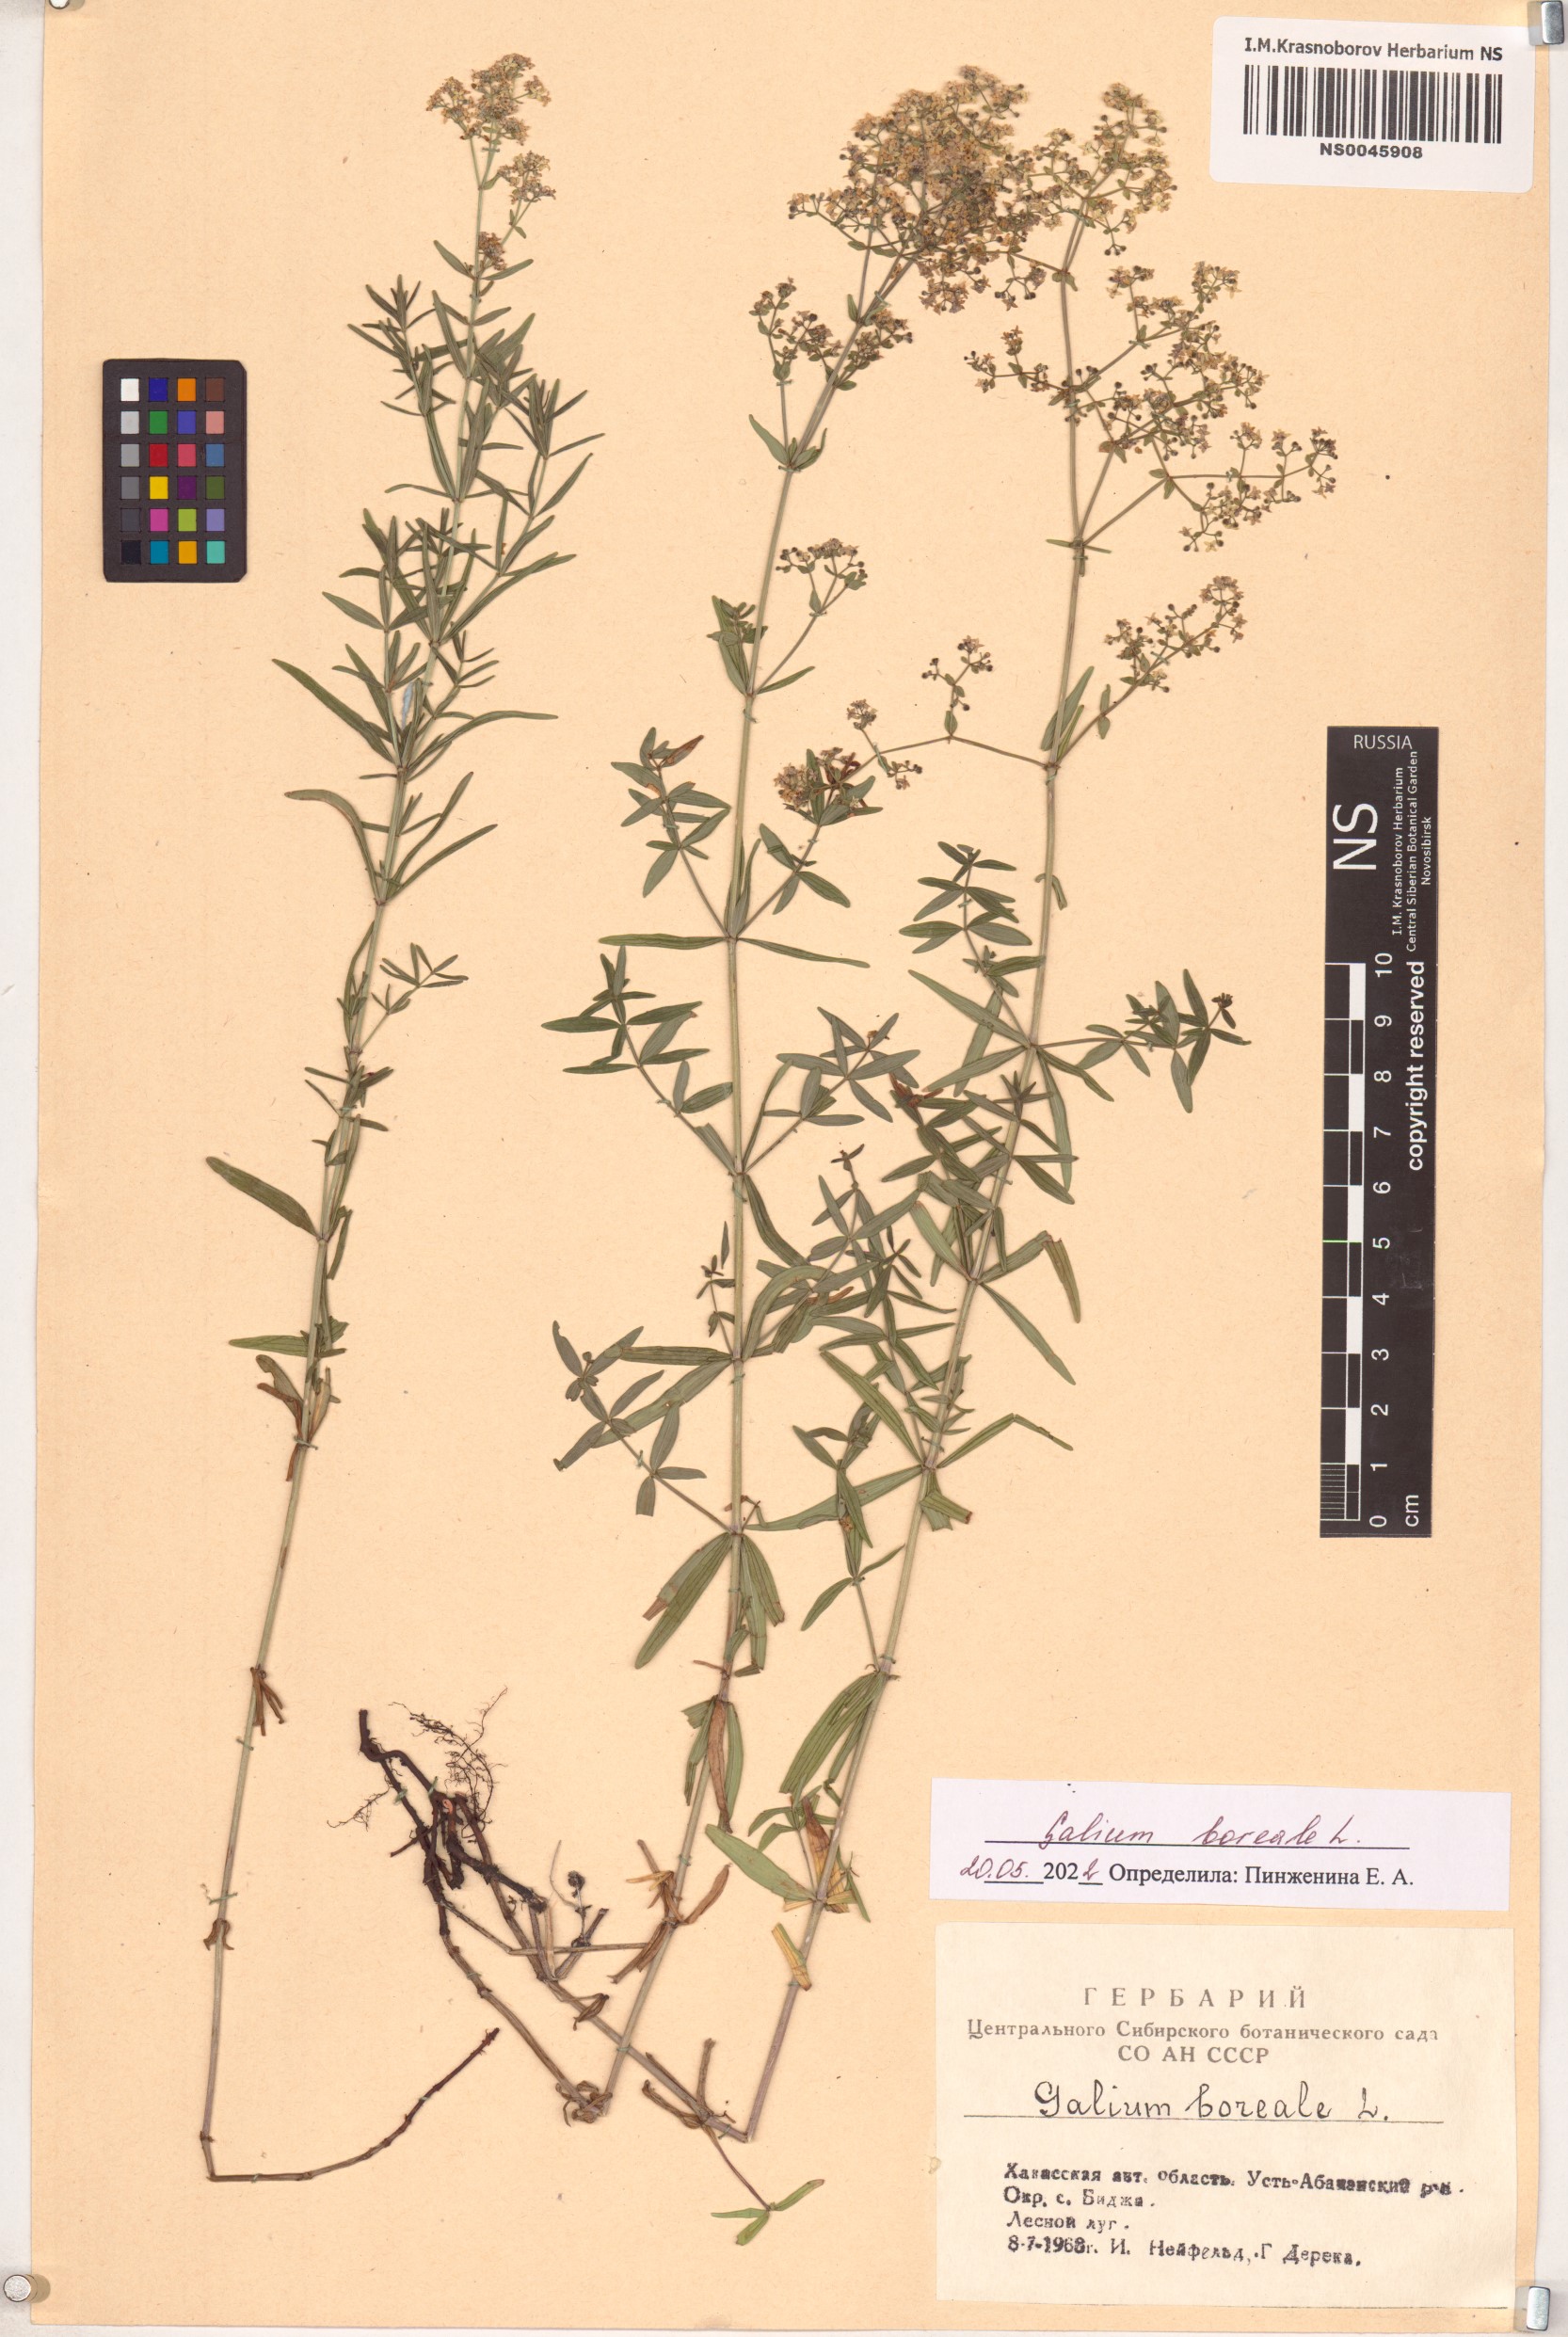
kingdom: Plantae
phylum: Tracheophyta
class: Magnoliopsida
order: Gentianales
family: Rubiaceae
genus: Galium
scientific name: Galium boreale
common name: Northern bedstraw
